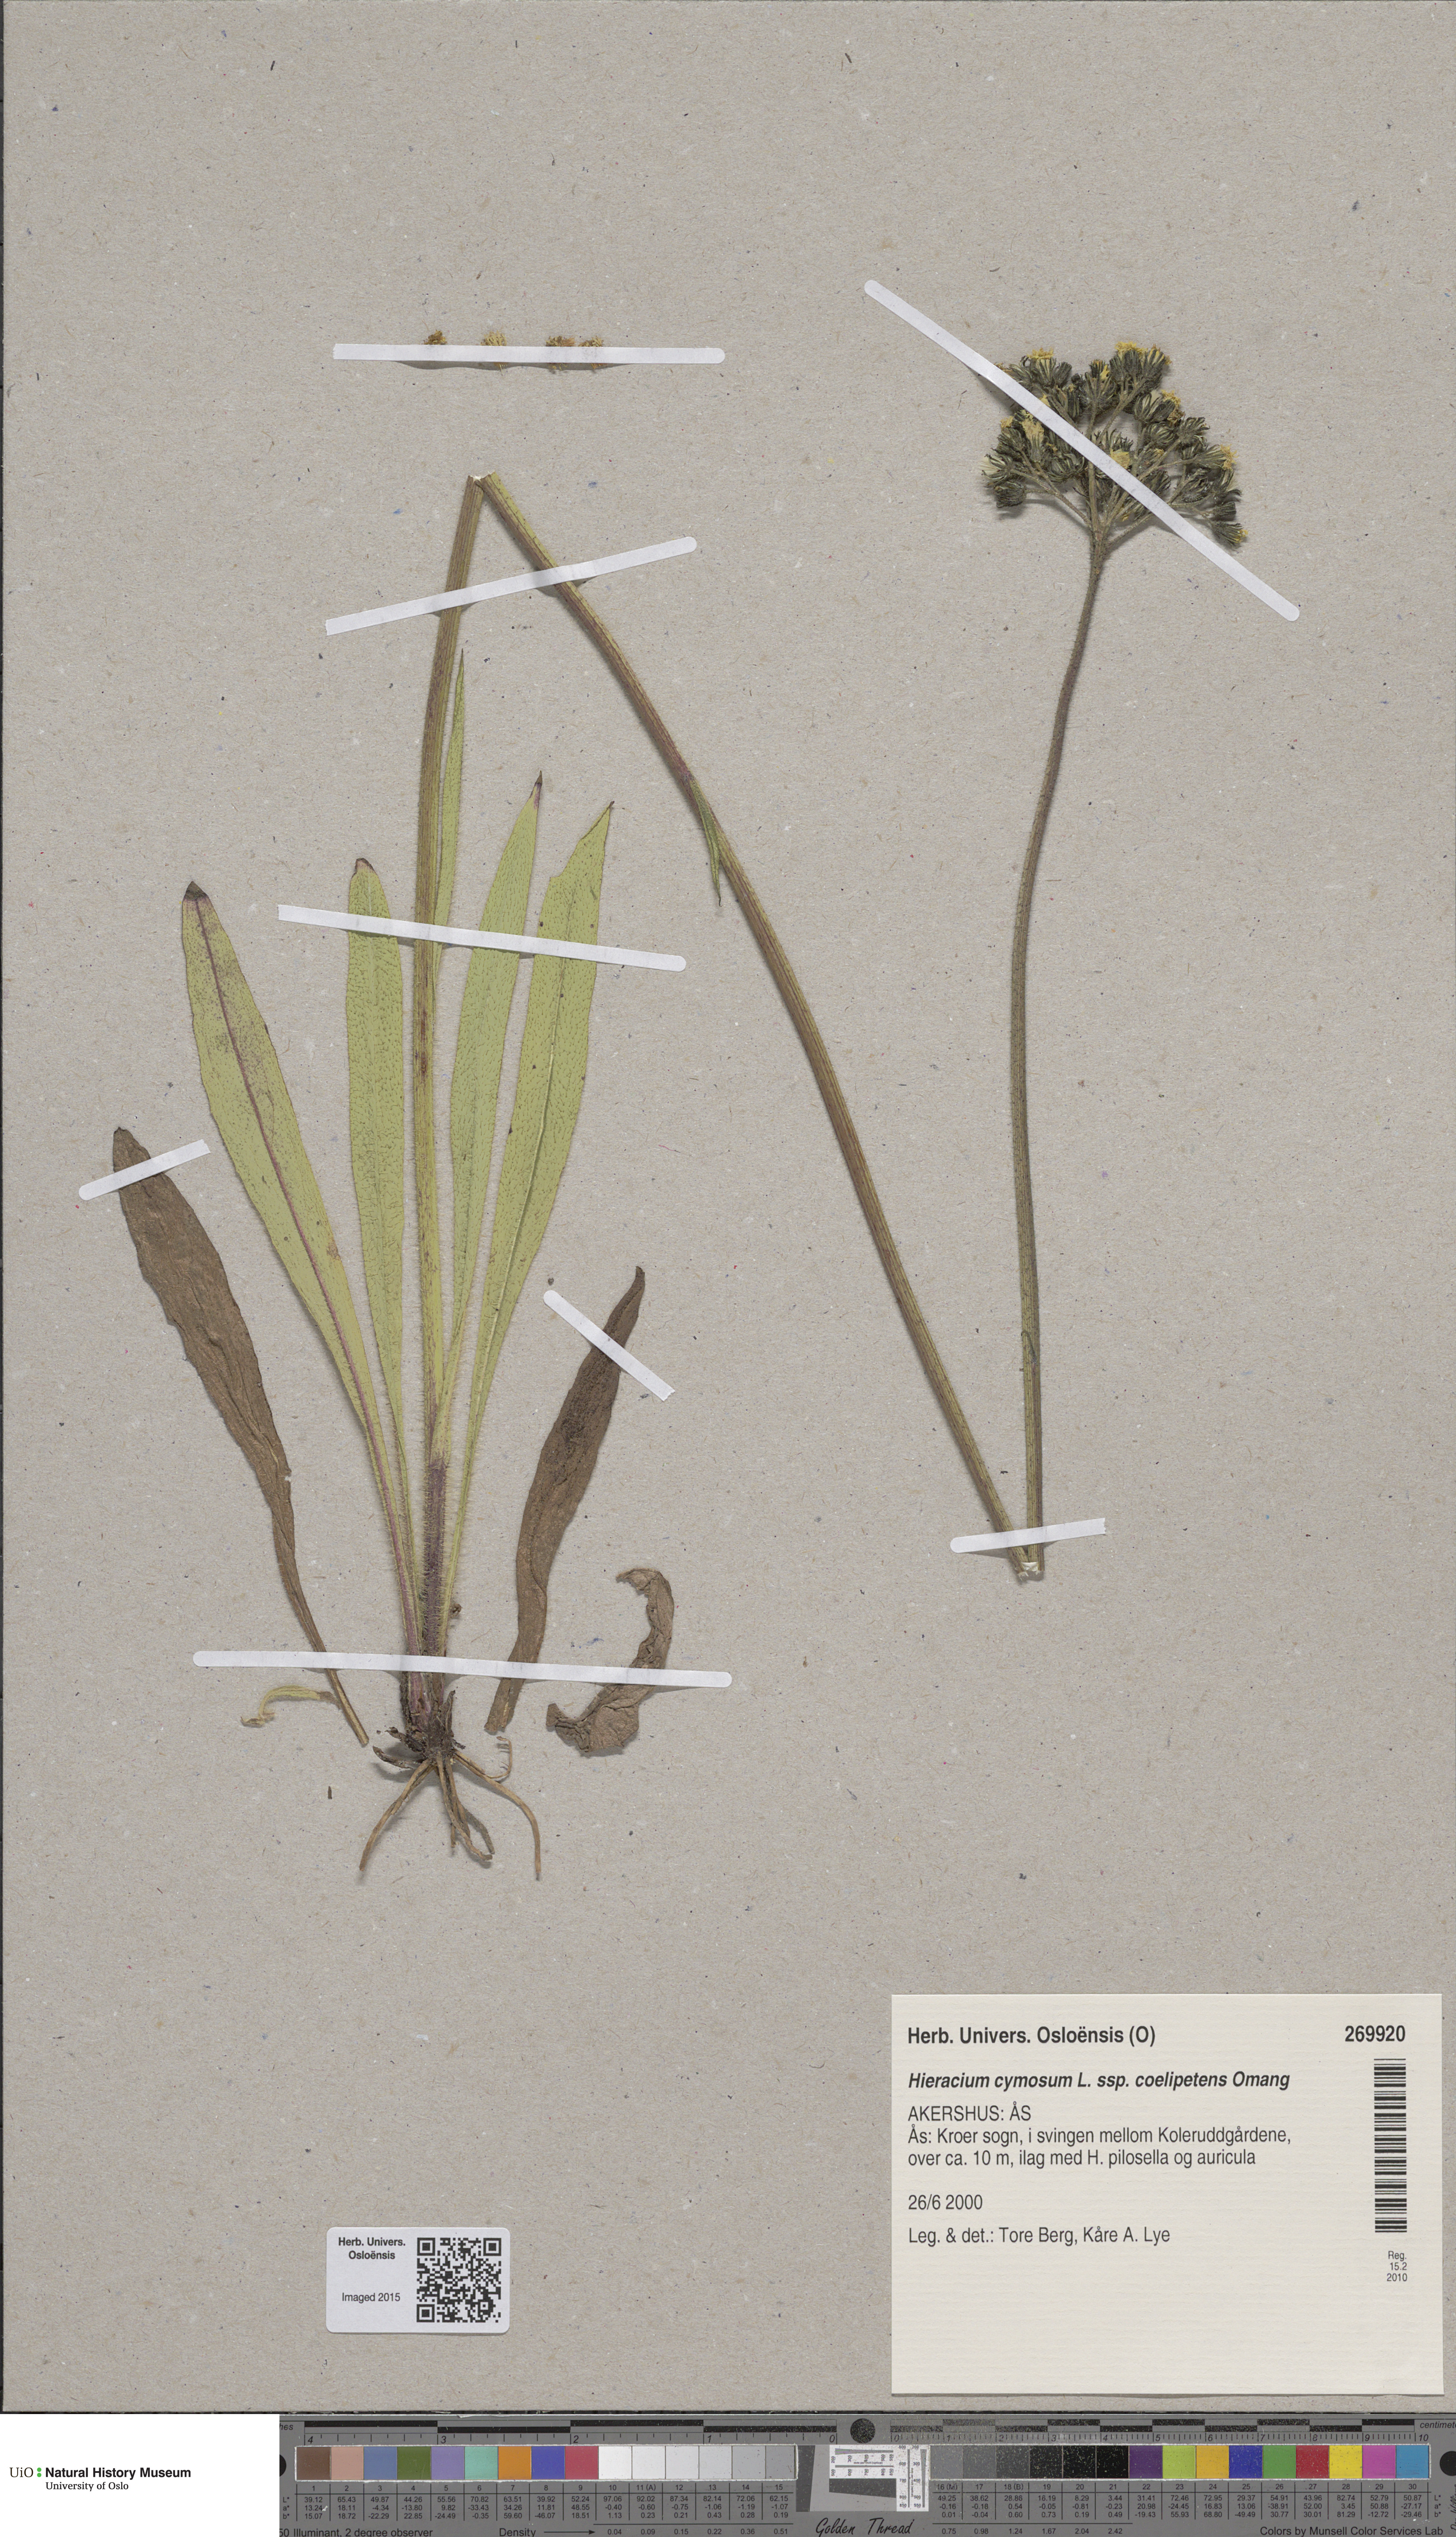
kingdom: Plantae
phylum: Tracheophyta
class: Magnoliopsida
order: Asterales
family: Asteraceae
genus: Pilosella
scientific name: Pilosella cymosa
